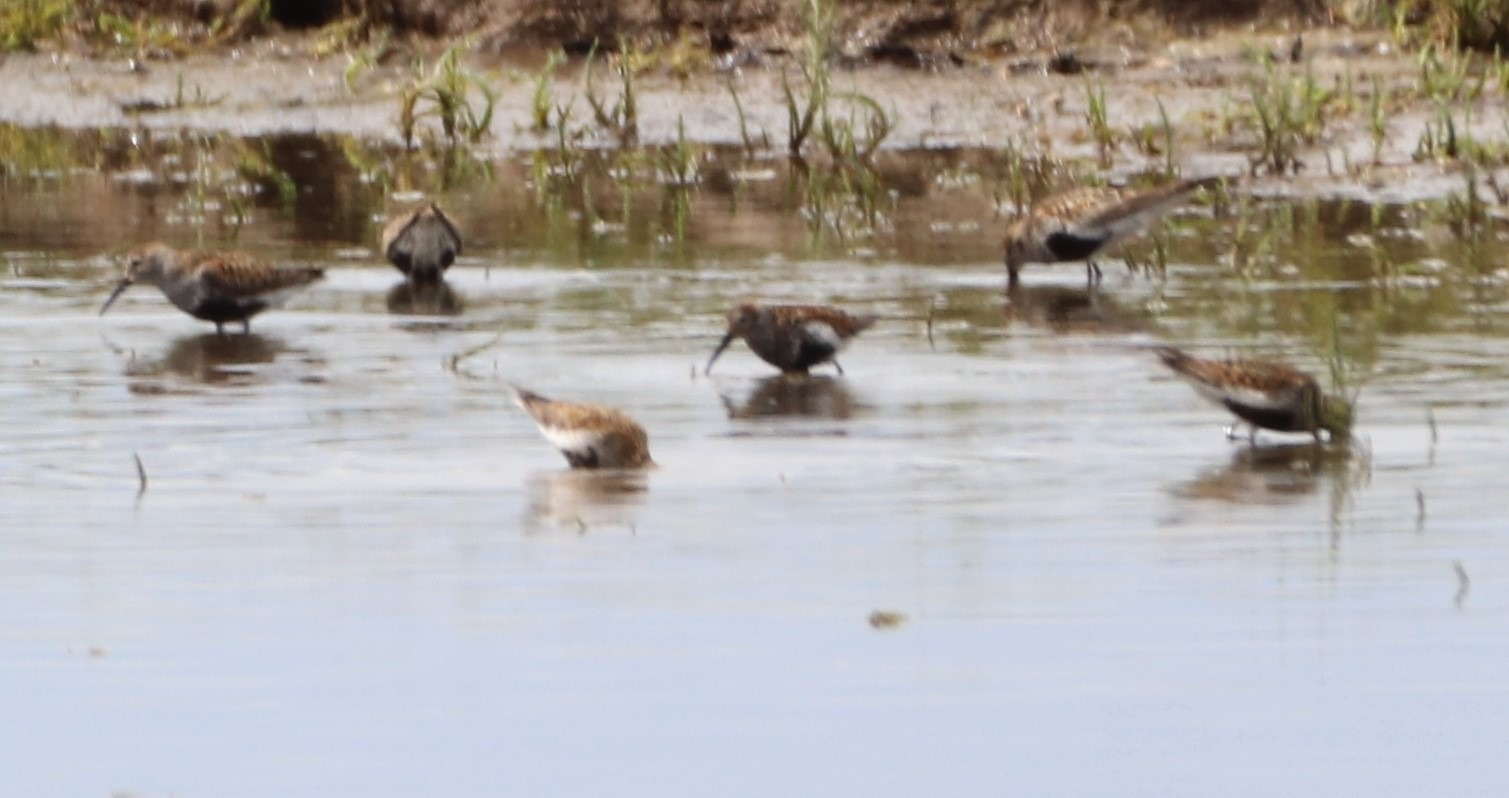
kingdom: Animalia
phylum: Chordata
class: Aves
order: Charadriiformes
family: Scolopacidae
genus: Calidris
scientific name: Calidris alpina
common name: Almindelig ryle
